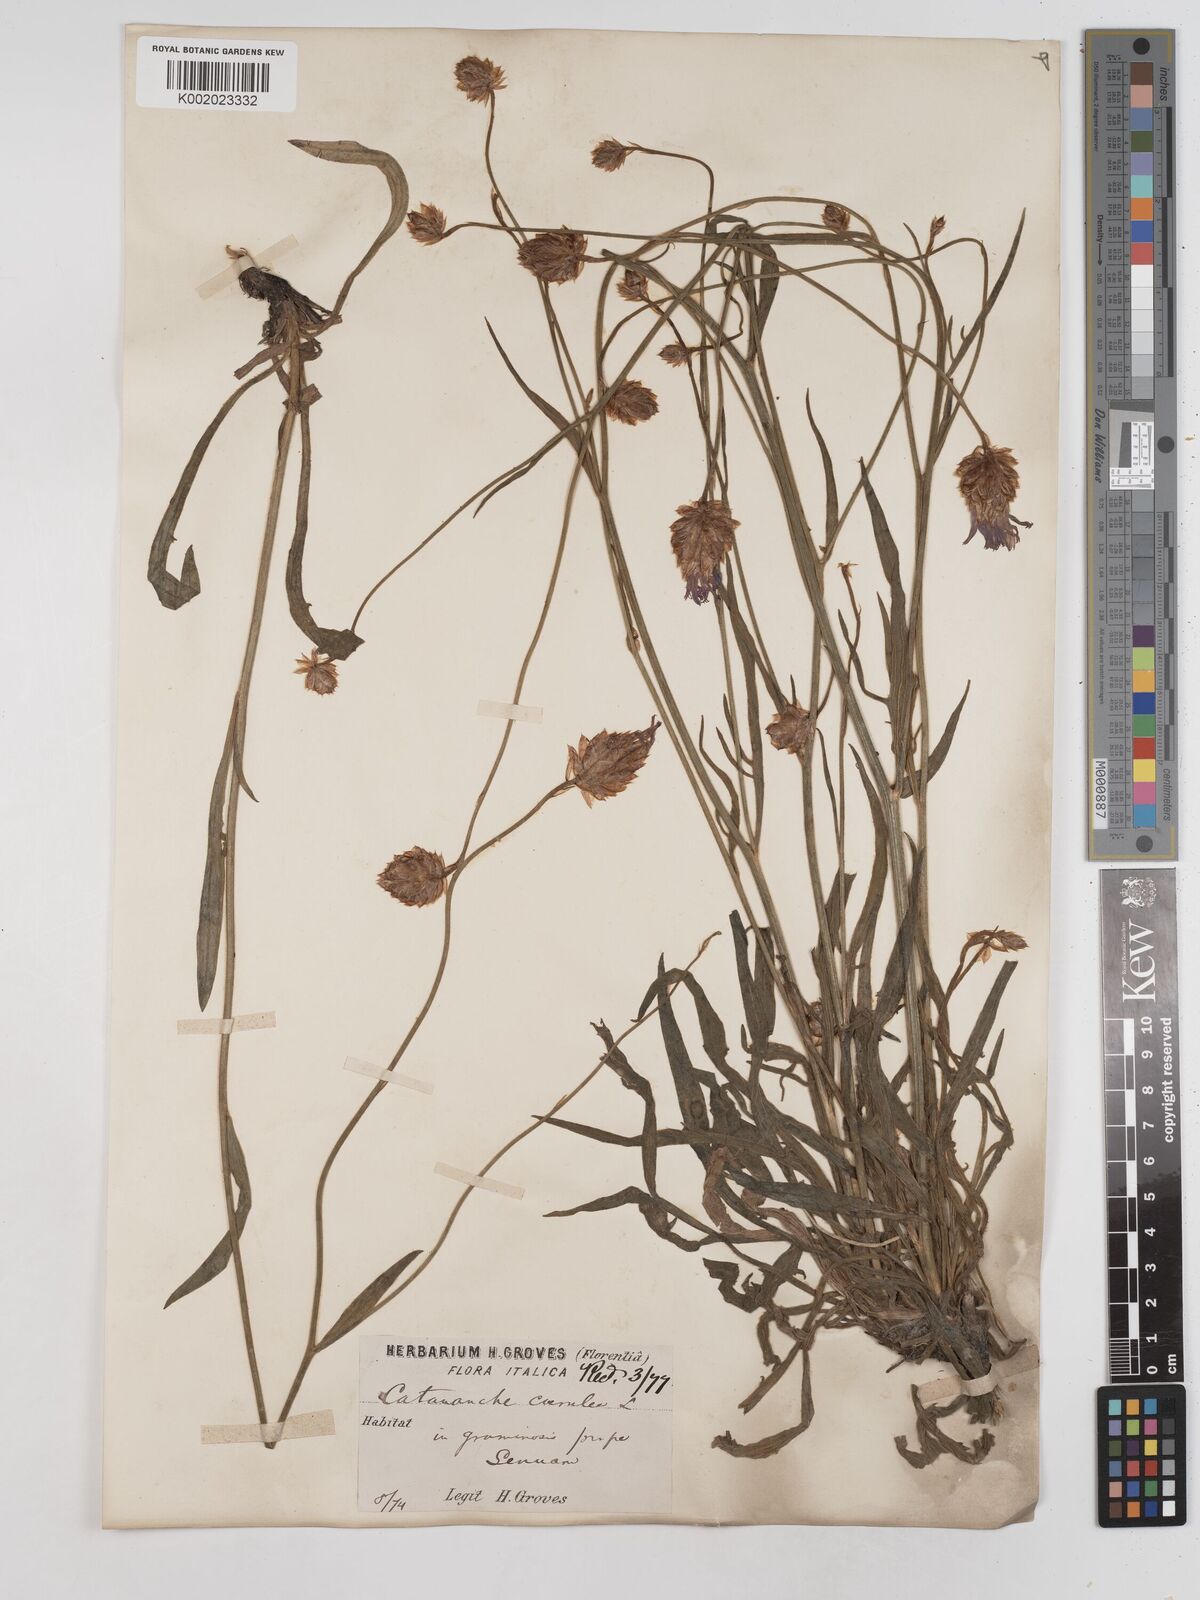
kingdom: Plantae
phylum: Tracheophyta
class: Magnoliopsida
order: Asterales
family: Asteraceae
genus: Catananche
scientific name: Catananche caerulea
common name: Blue cupidone
